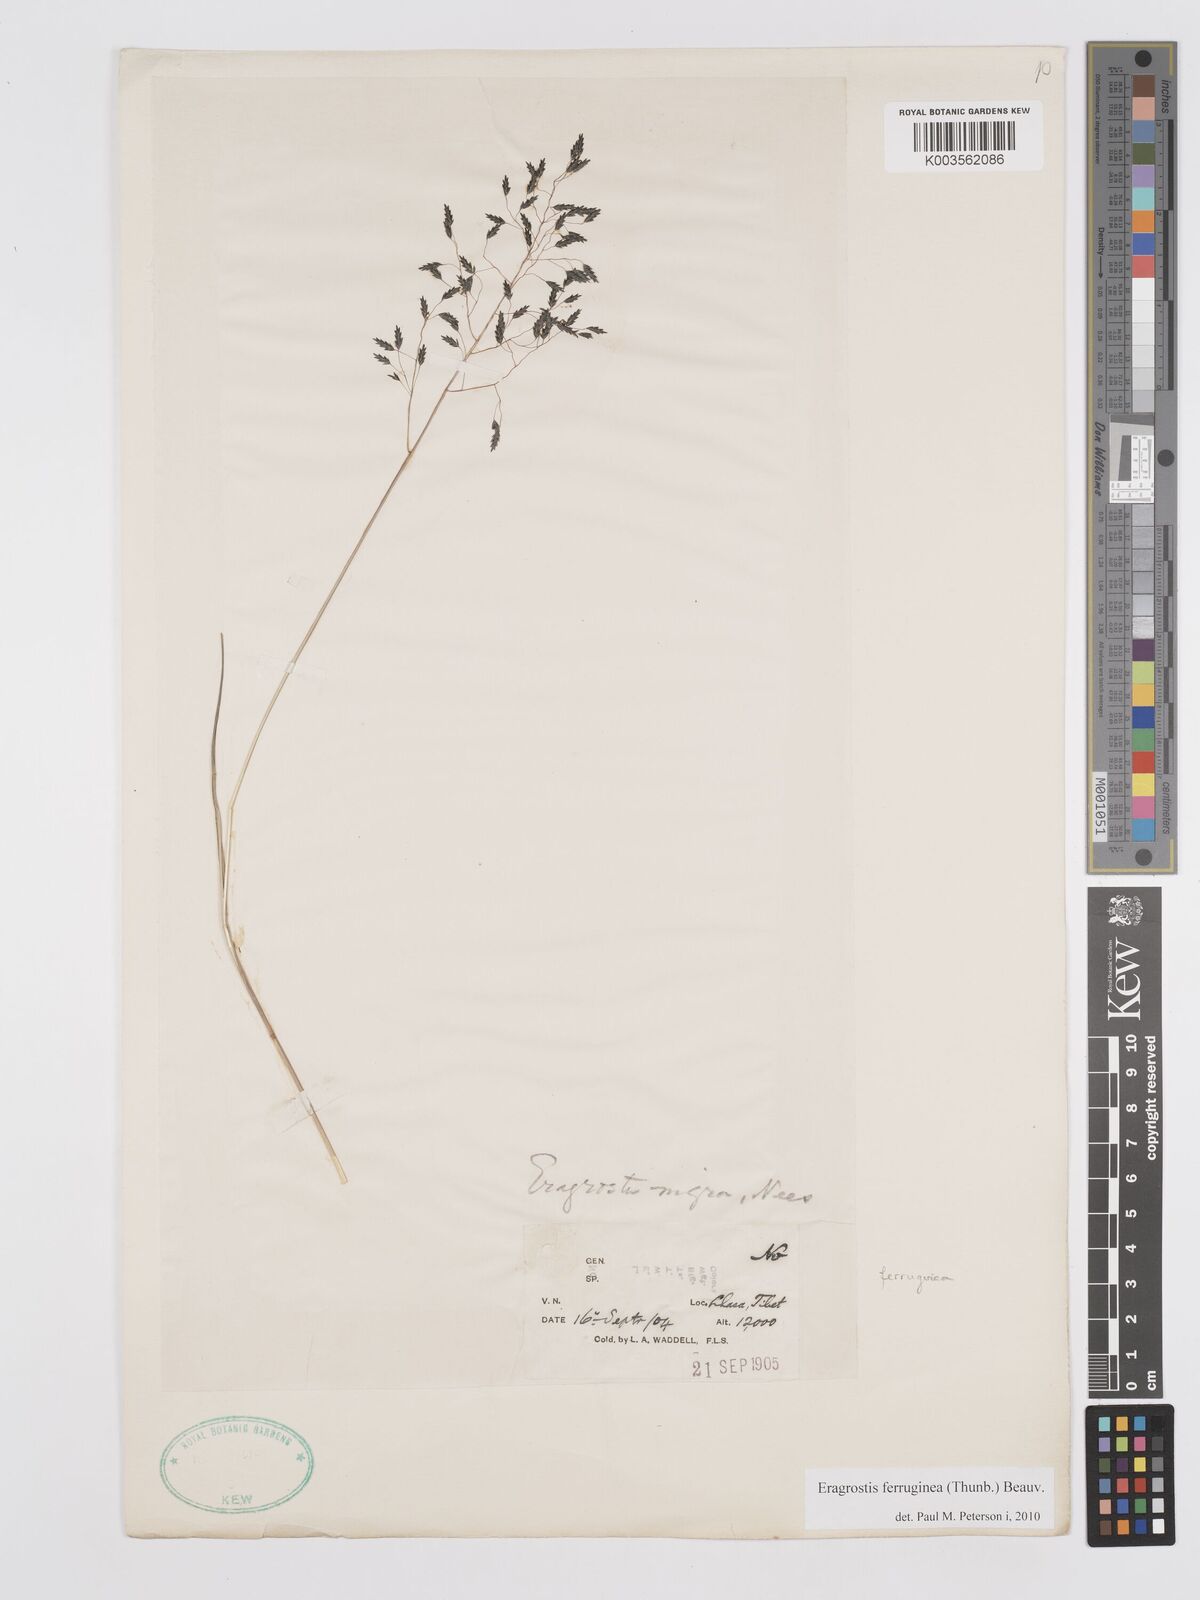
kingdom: Plantae
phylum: Tracheophyta
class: Liliopsida
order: Poales
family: Poaceae
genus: Eragrostis
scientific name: Eragrostis ferruginea
